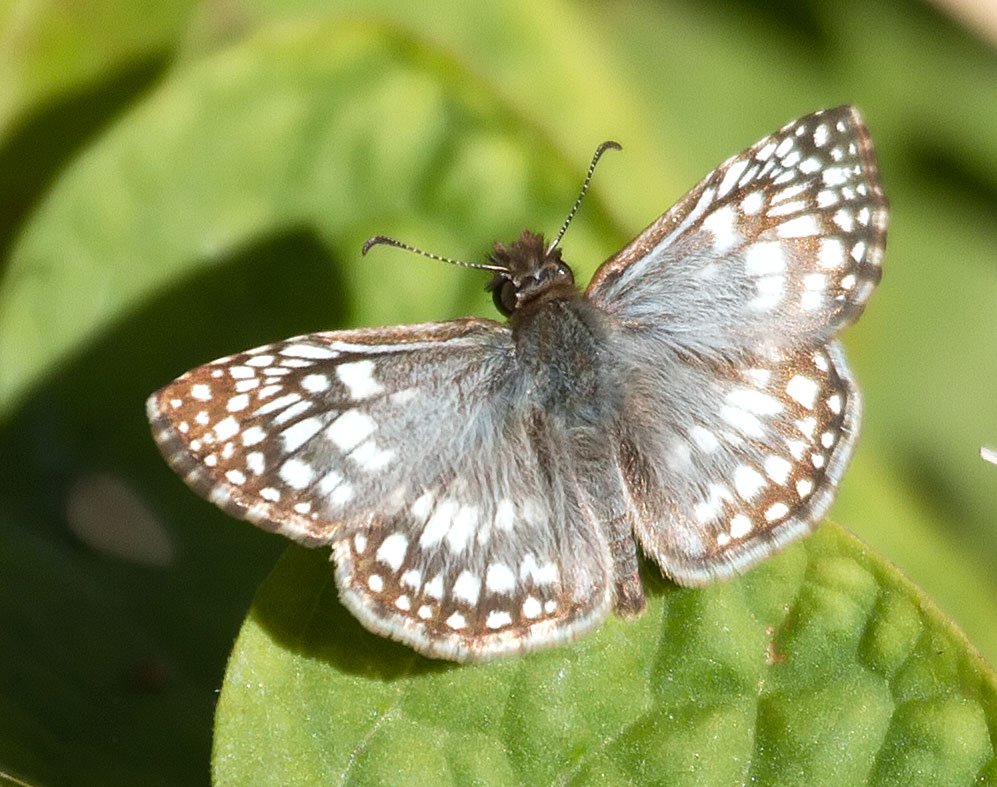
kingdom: Animalia
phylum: Arthropoda
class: Insecta
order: Lepidoptera
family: Hesperiidae
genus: Pyrgus
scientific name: Pyrgus oileus
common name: Tropical Checkered-Skipper
